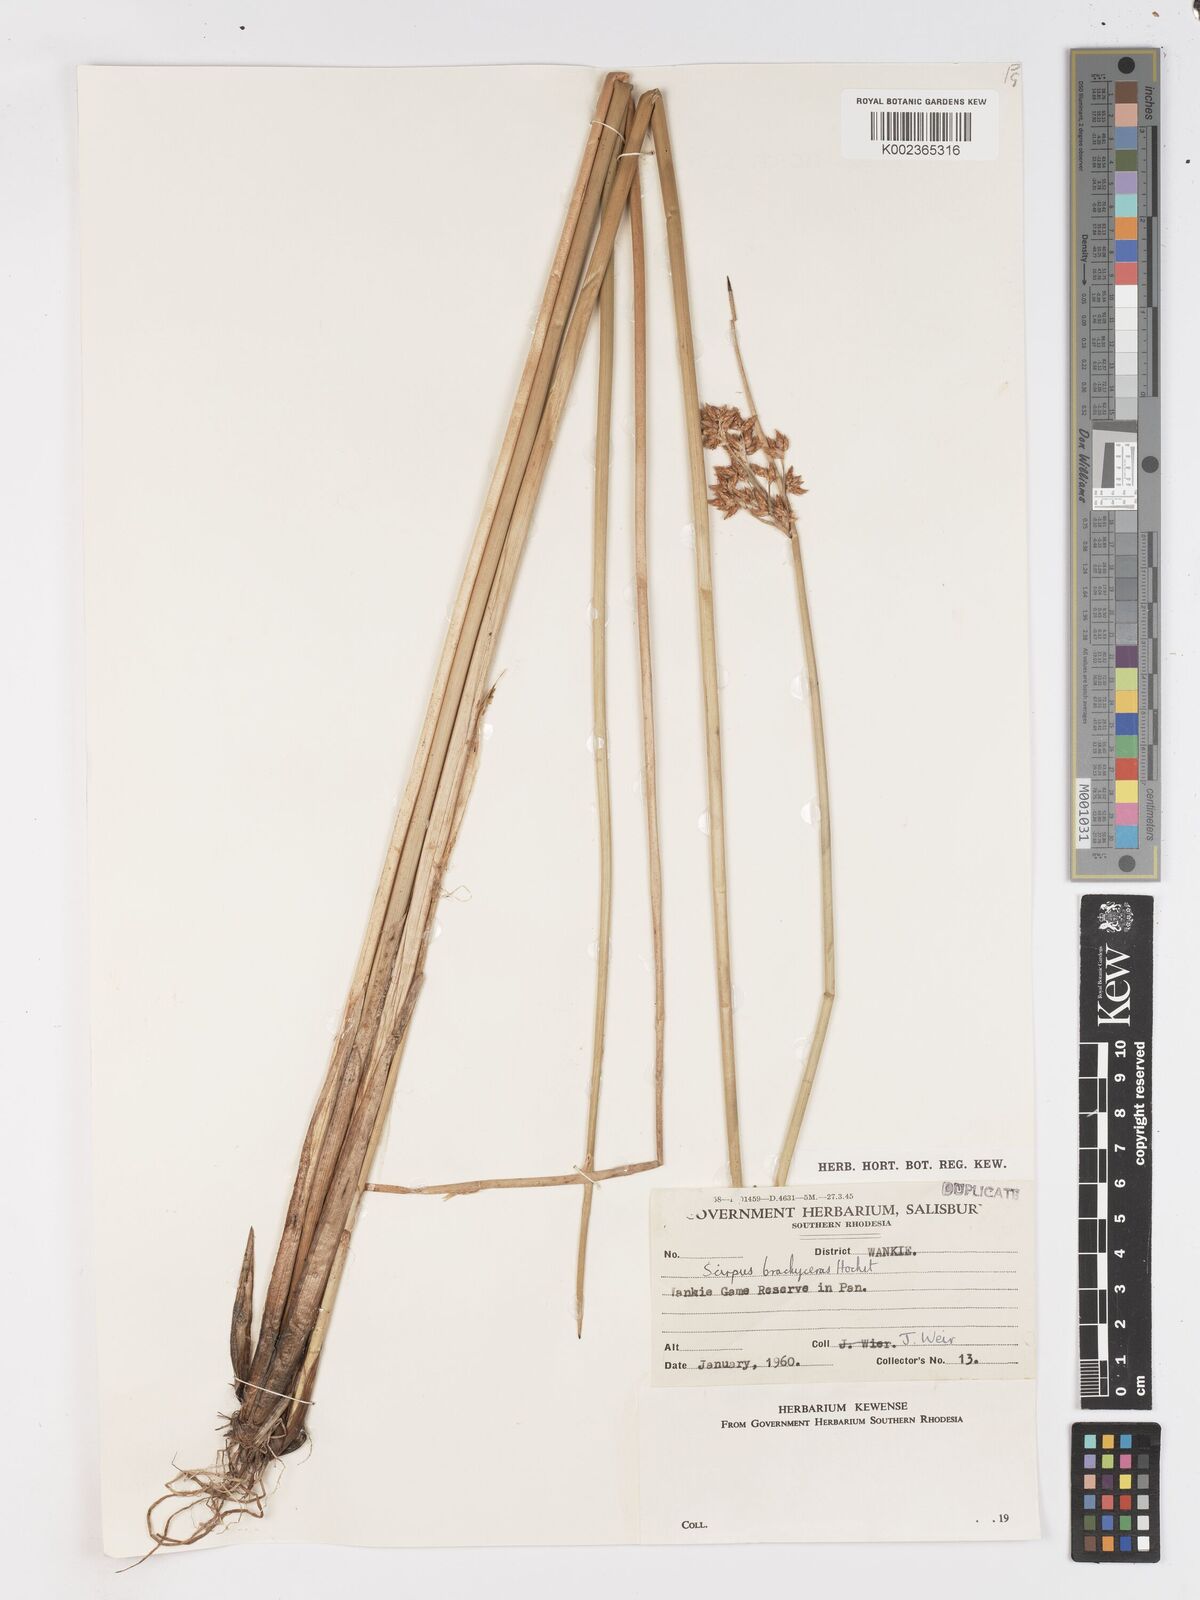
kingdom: Plantae
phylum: Tracheophyta
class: Liliopsida
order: Poales
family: Cyperaceae
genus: Schoenoplectus
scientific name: Schoenoplectus
